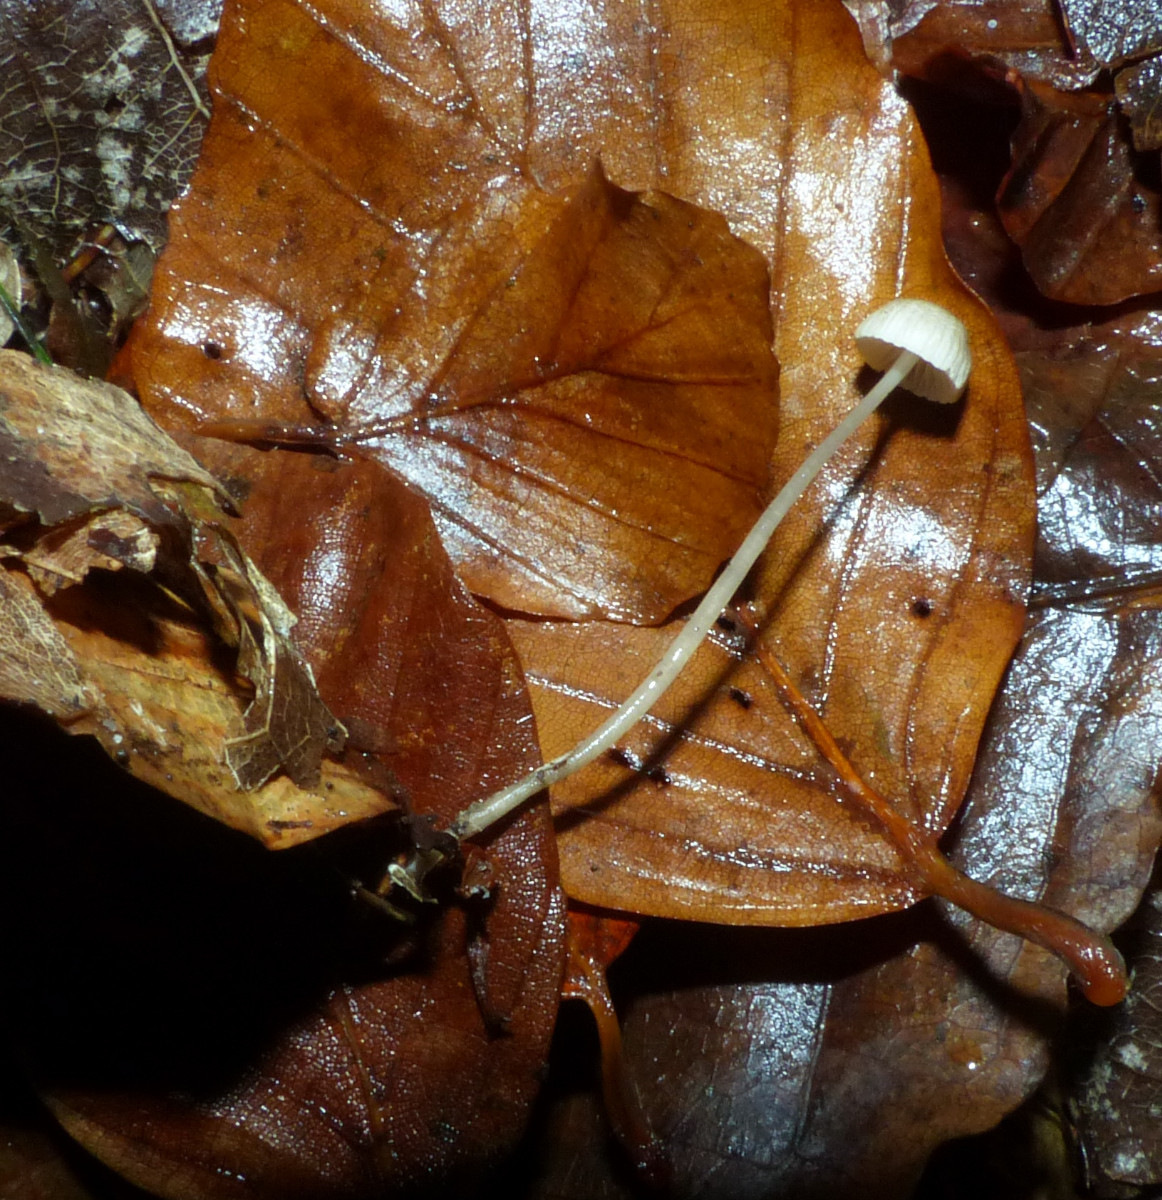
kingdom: Fungi
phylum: Basidiomycota
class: Agaricomycetes
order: Agaricales
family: Mycenaceae
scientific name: Mycenaceae
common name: huesvampfamilien
